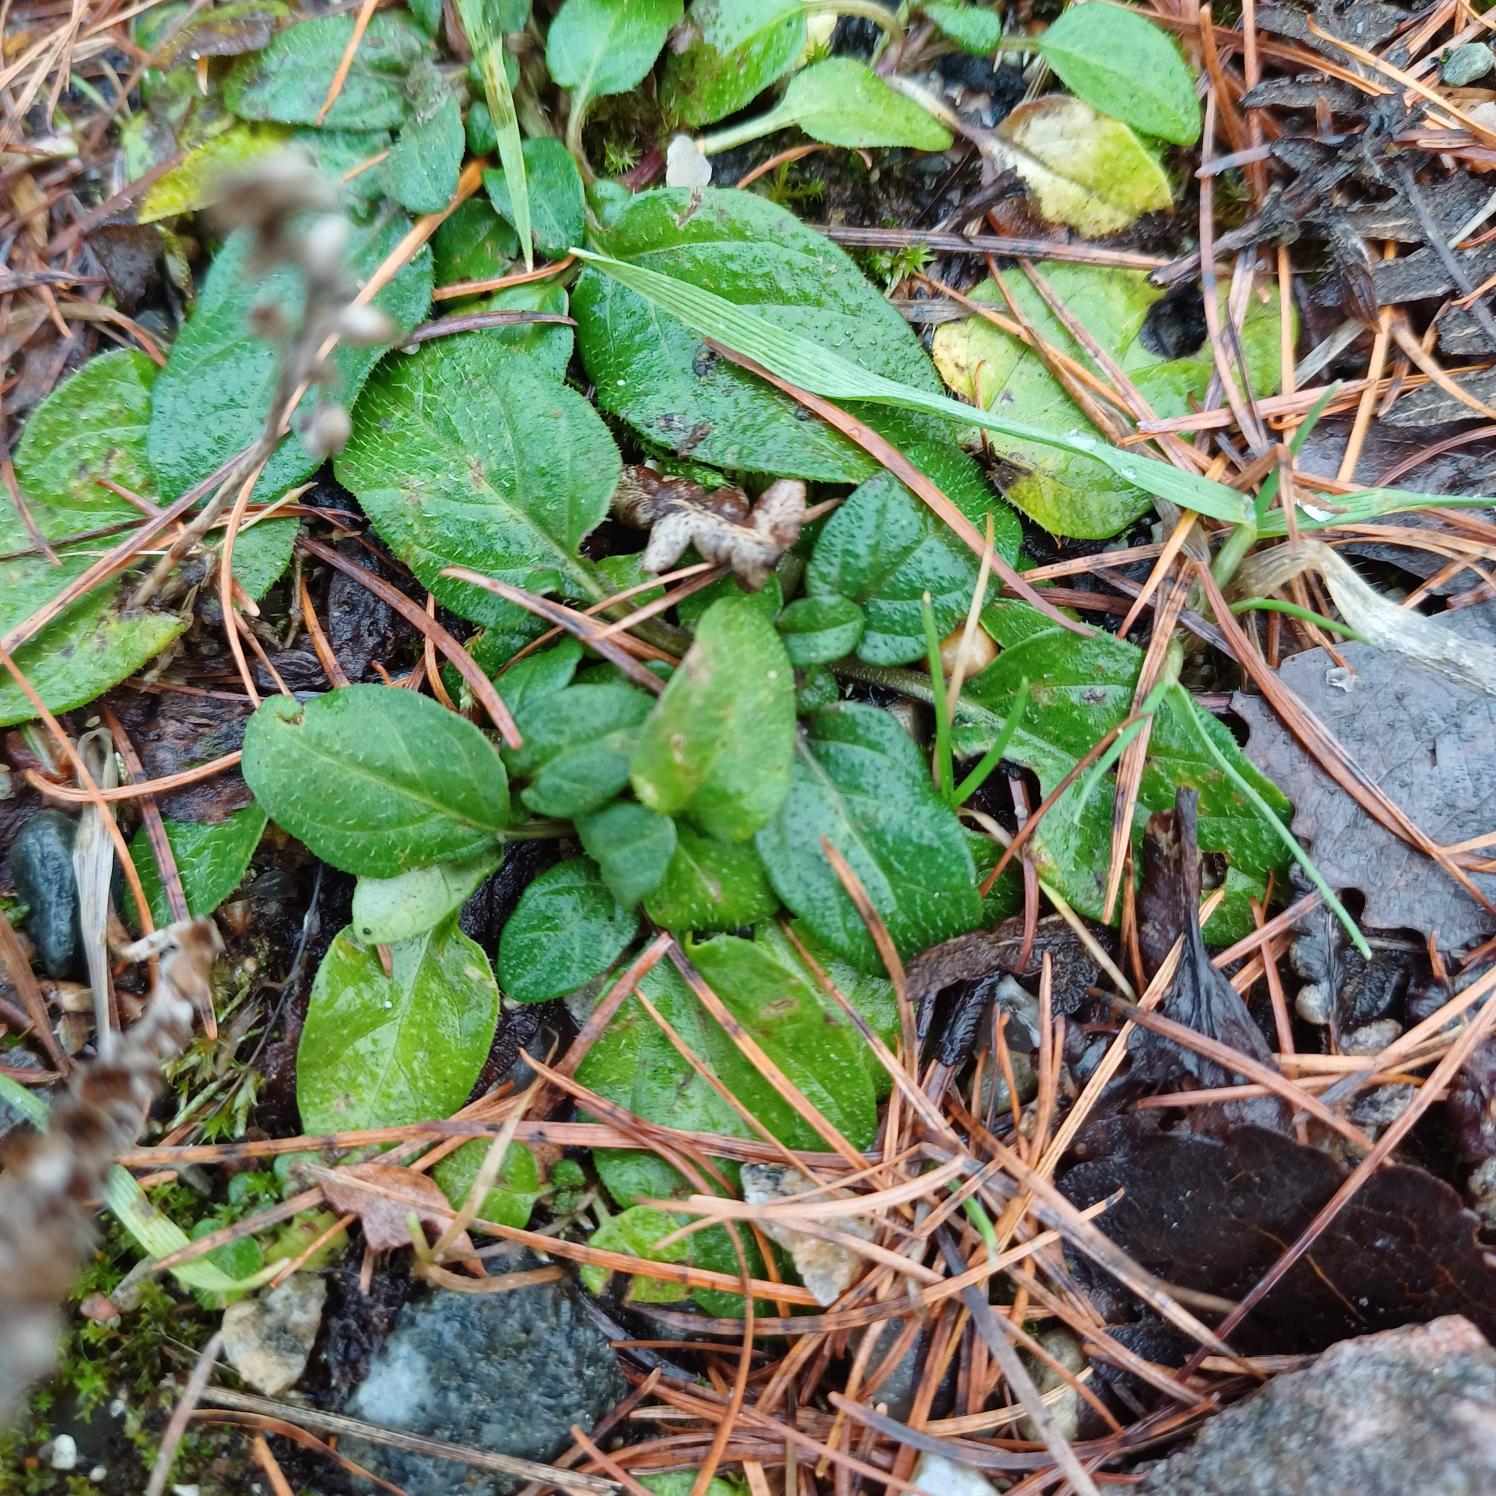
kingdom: Plantae
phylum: Tracheophyta
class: Magnoliopsida
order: Lamiales
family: Lamiaceae
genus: Prunella
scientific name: Prunella vulgaris
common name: Almindelig brunelle
